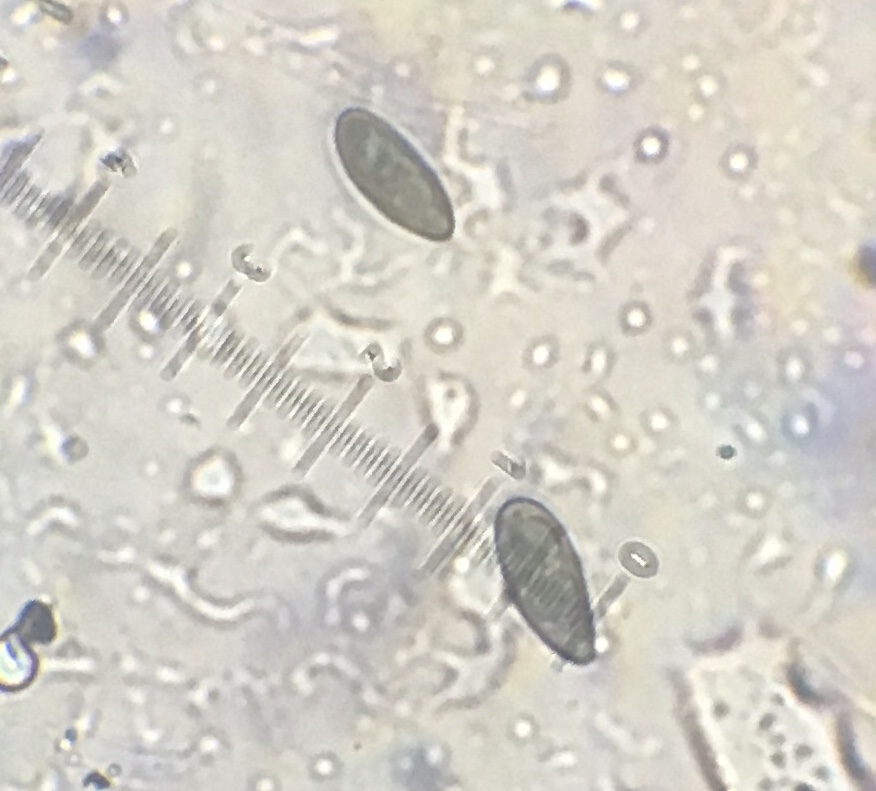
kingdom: Fungi
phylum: Ascomycota
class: Sordariomycetes
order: Xylariales
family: Xylariaceae
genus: Nemania
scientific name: Nemania serpens
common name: almindelig kuldyne
